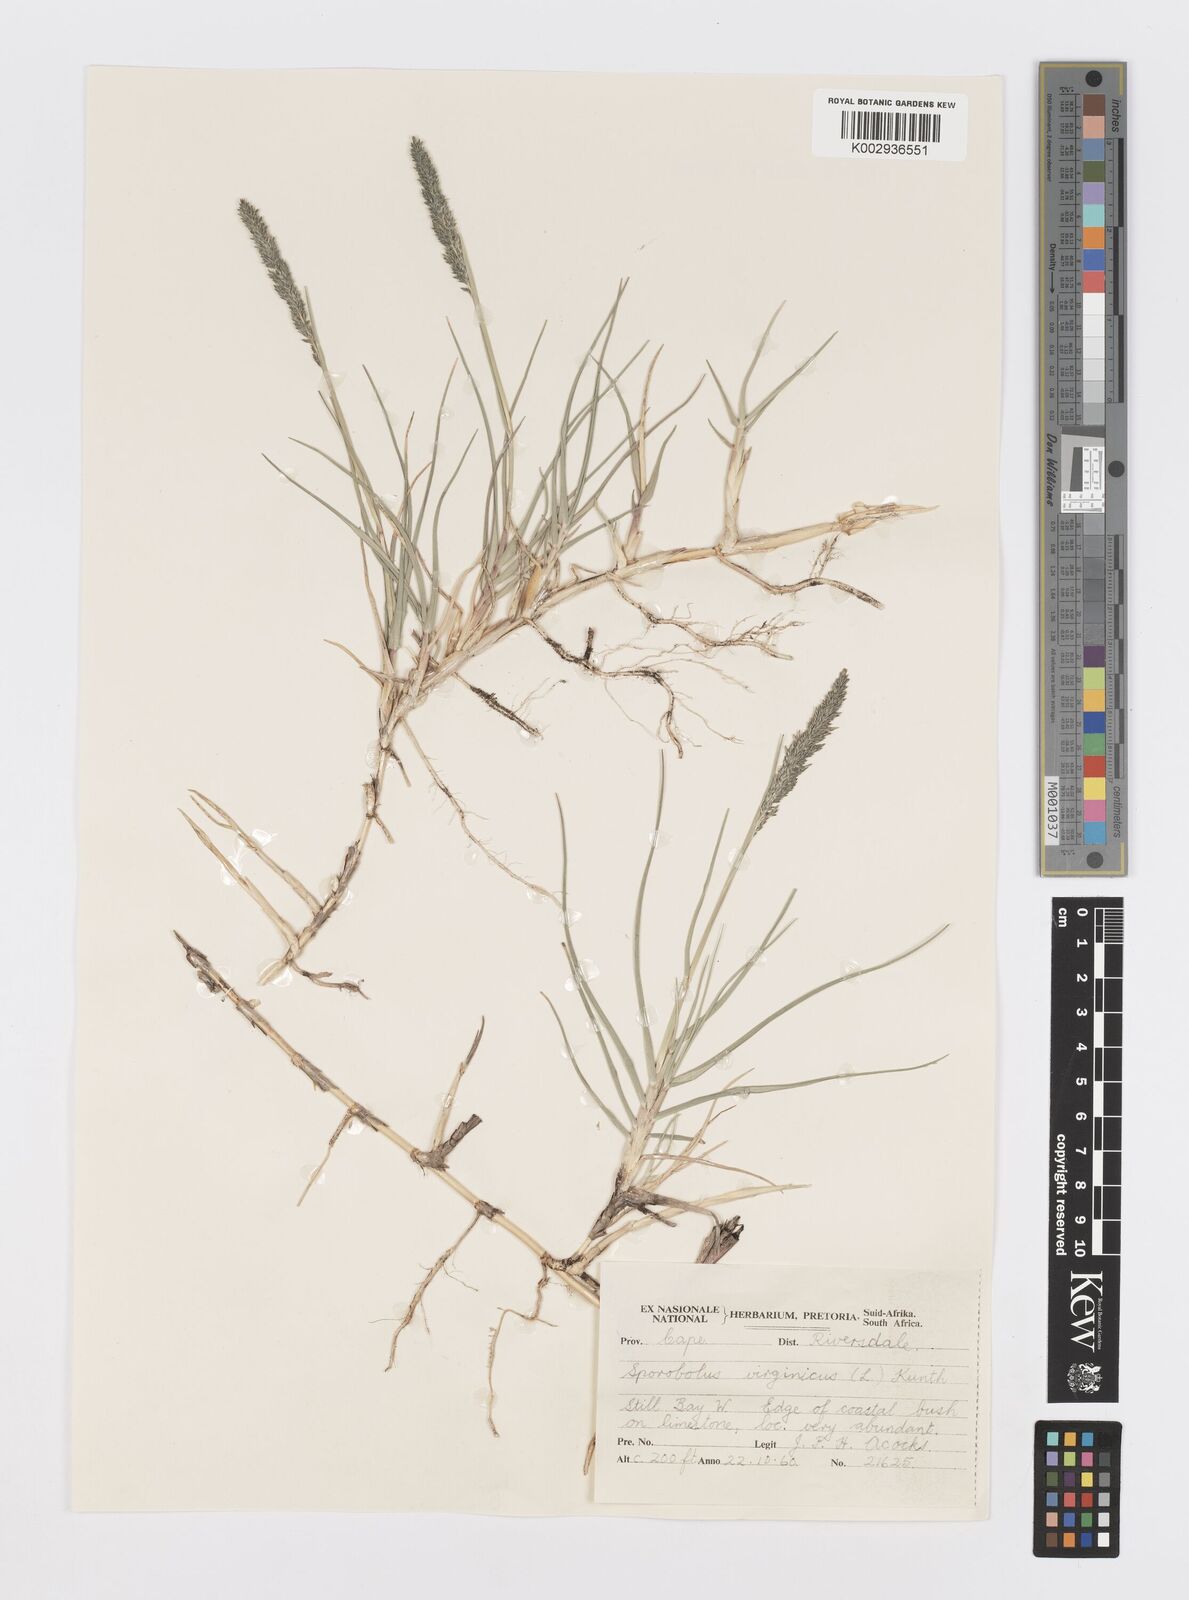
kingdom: Plantae
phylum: Tracheophyta
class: Liliopsida
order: Poales
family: Poaceae
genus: Sporobolus
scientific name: Sporobolus virginicus
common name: Beach dropseed
